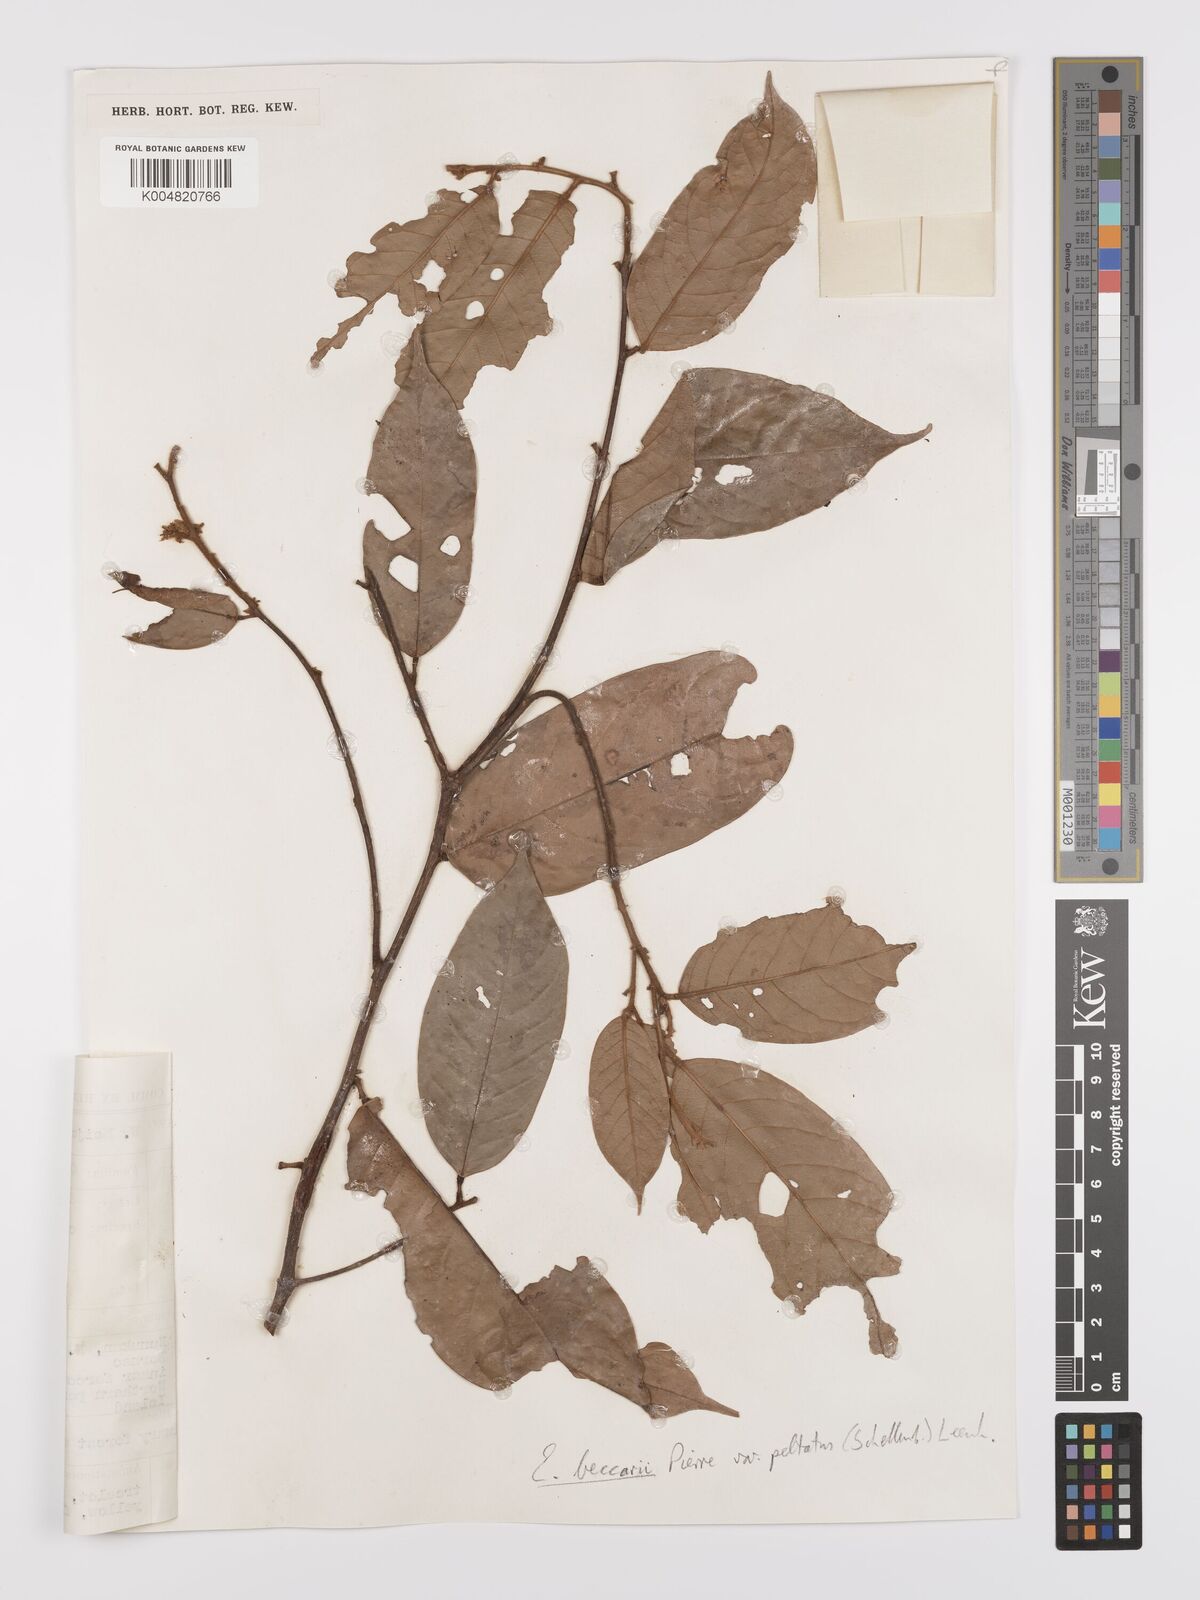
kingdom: Plantae
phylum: Tracheophyta
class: Magnoliopsida
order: Oxalidales
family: Connaraceae
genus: Ellipanthus
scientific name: Ellipanthus beccarii
